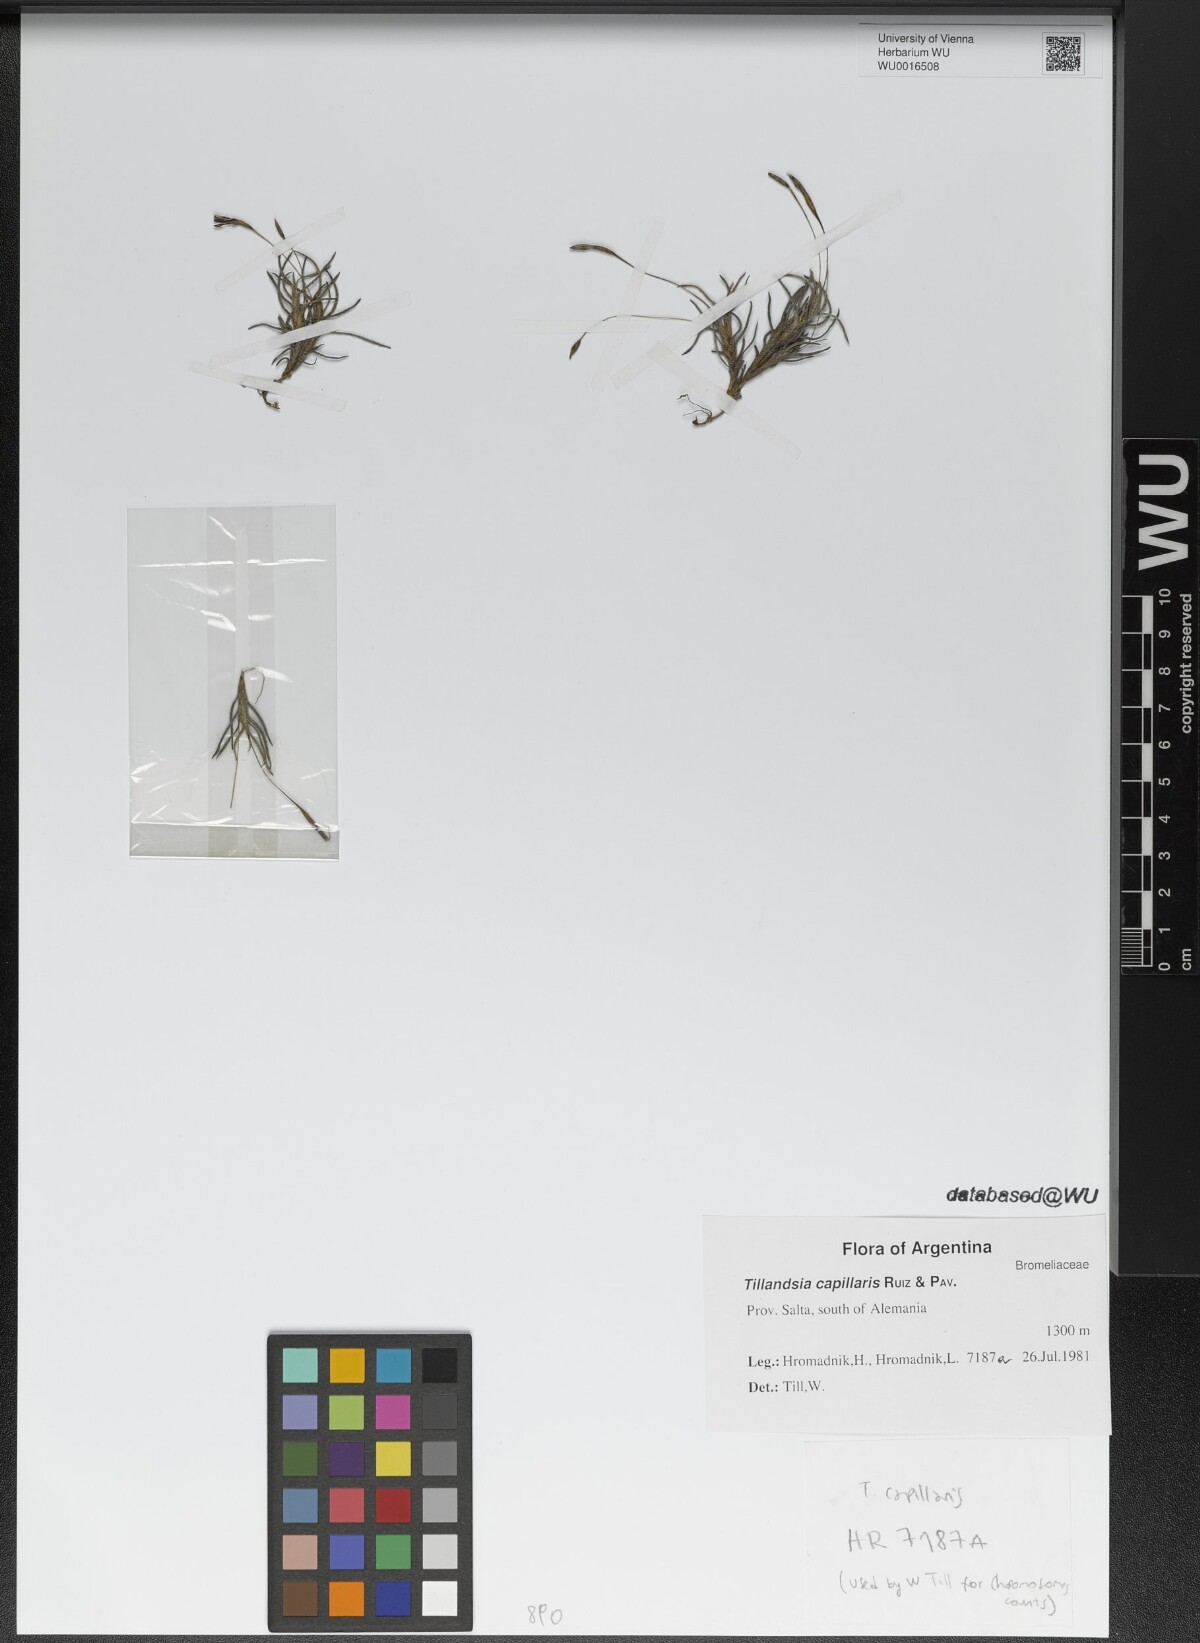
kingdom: Plantae
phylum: Tracheophyta
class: Liliopsida
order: Poales
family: Bromeliaceae
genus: Tillandsia
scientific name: Tillandsia capillaris
